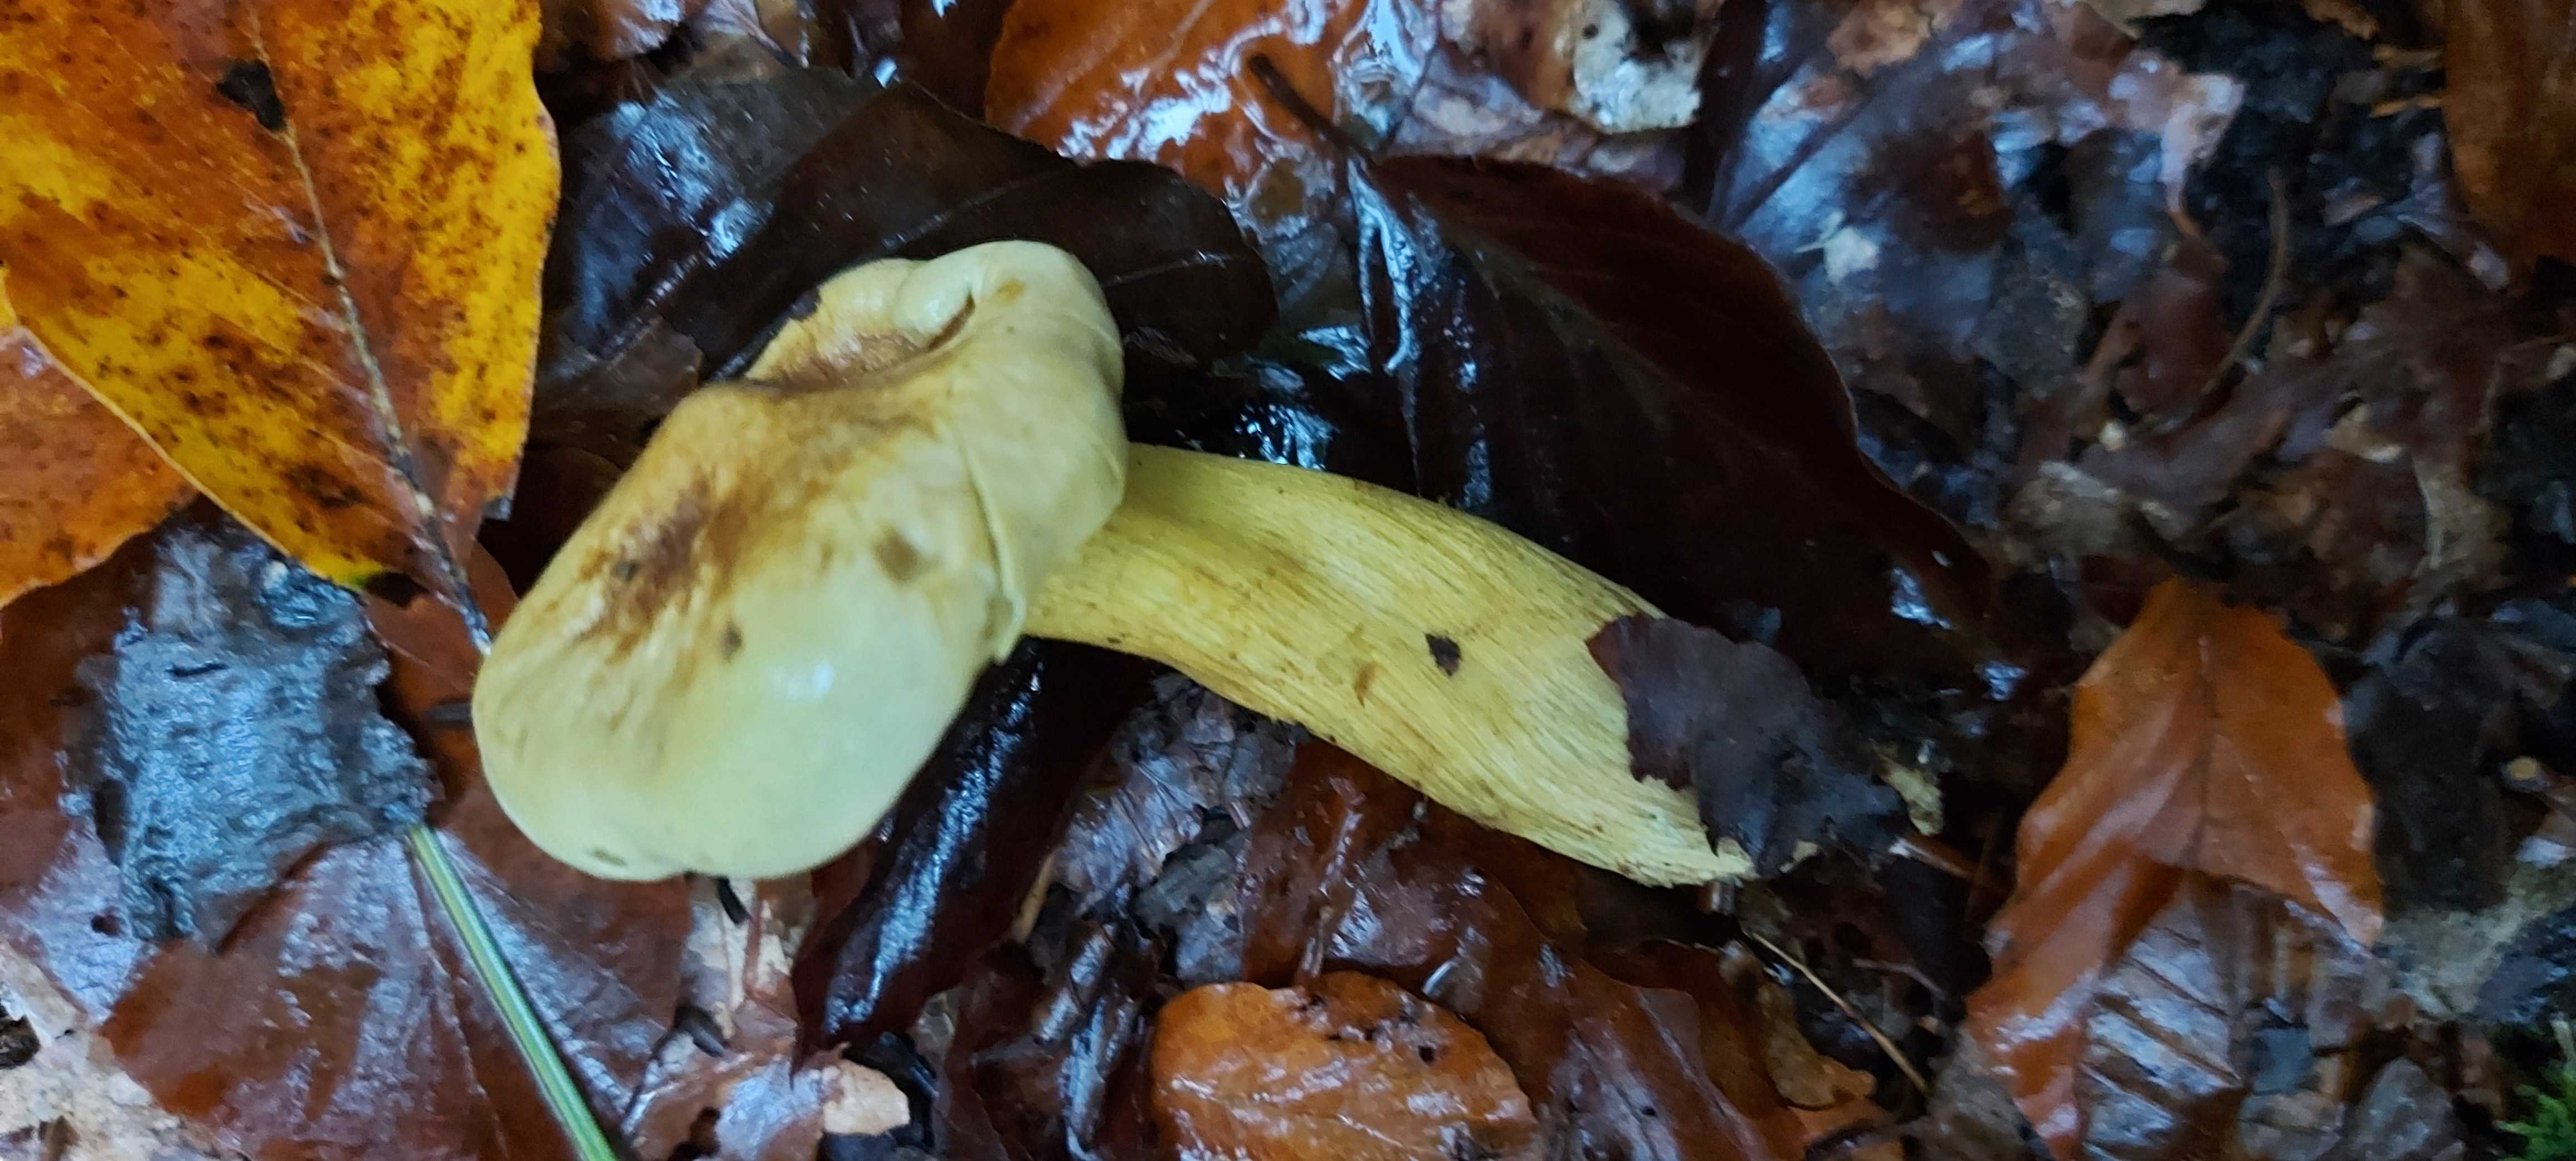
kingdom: Fungi
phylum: Basidiomycota
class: Agaricomycetes
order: Agaricales
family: Tricholomataceae
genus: Tricholoma
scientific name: Tricholoma sulphureum
